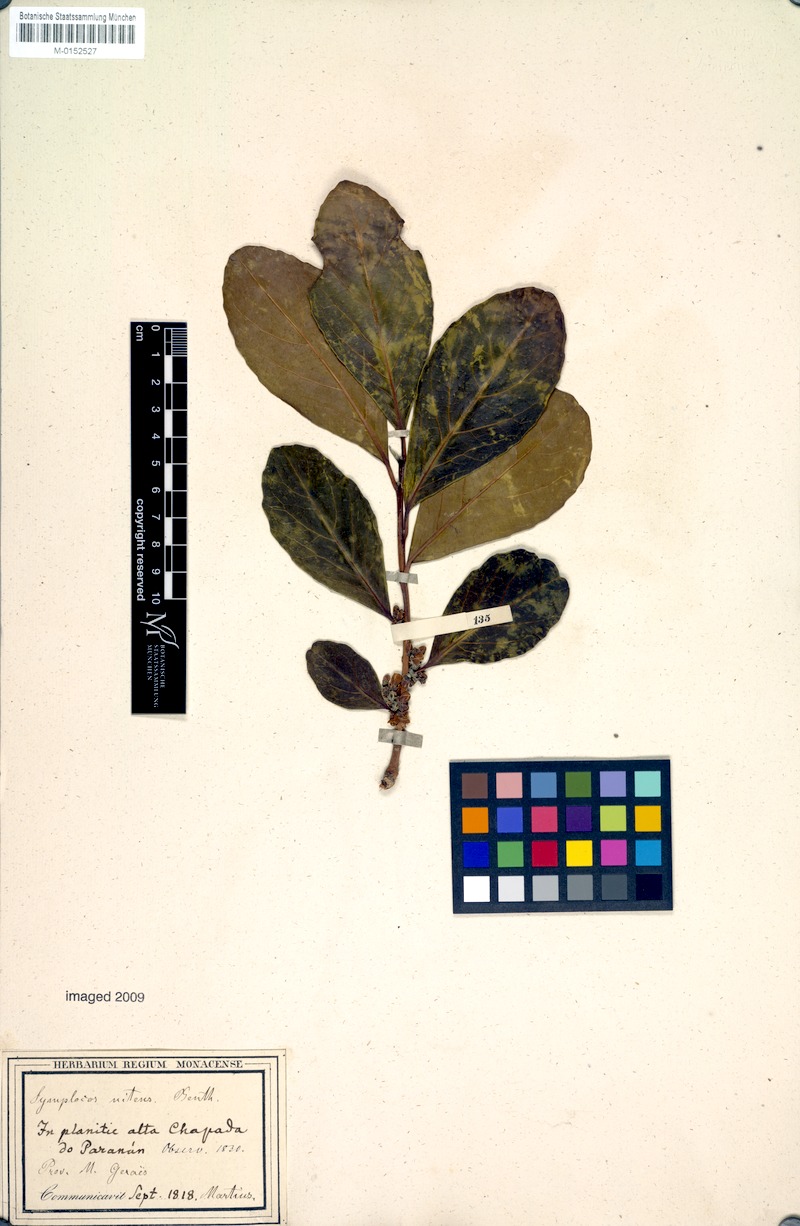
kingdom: Plantae
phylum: Tracheophyta
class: Magnoliopsida
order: Ericales
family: Symplocaceae
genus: Symplocos
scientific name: Symplocos nitens
